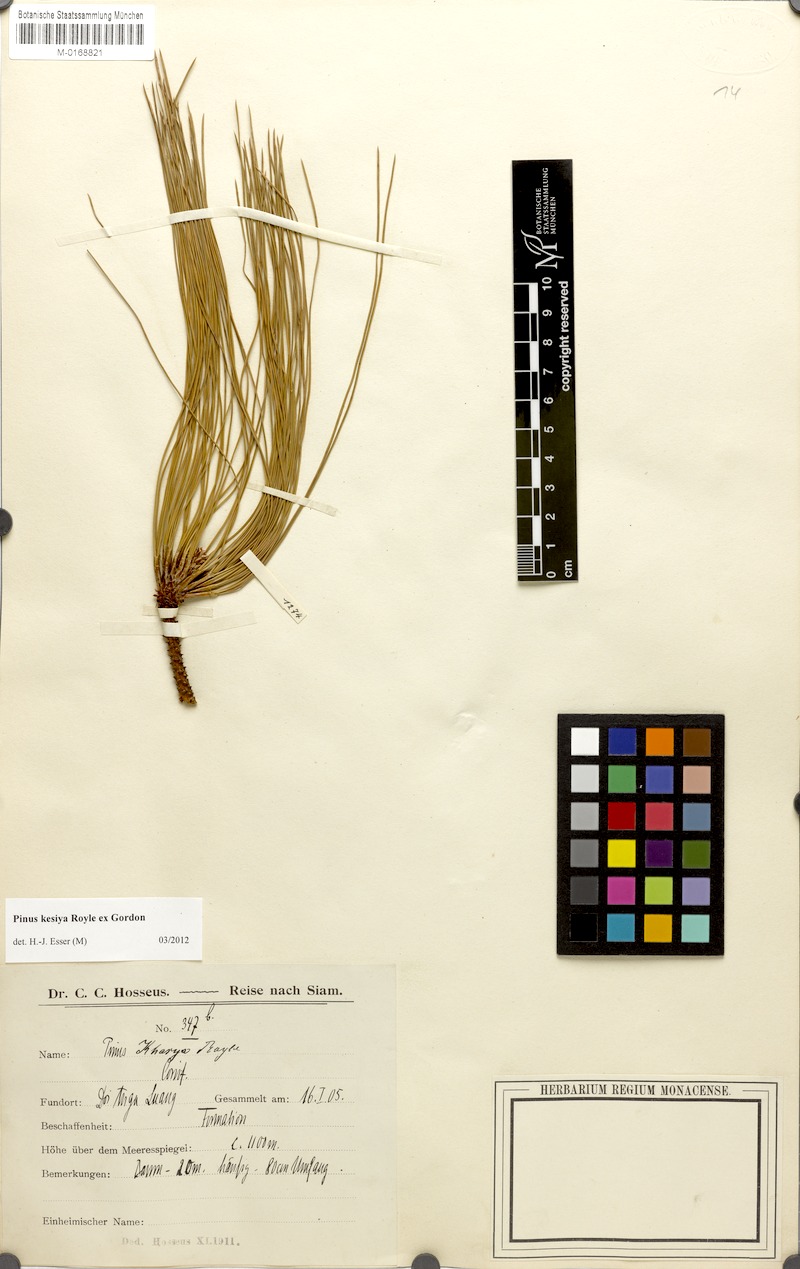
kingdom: Plantae
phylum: Tracheophyta
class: Pinopsida
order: Pinales
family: Pinaceae
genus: Pinus
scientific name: Pinus kesiya
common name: Benguet pine
